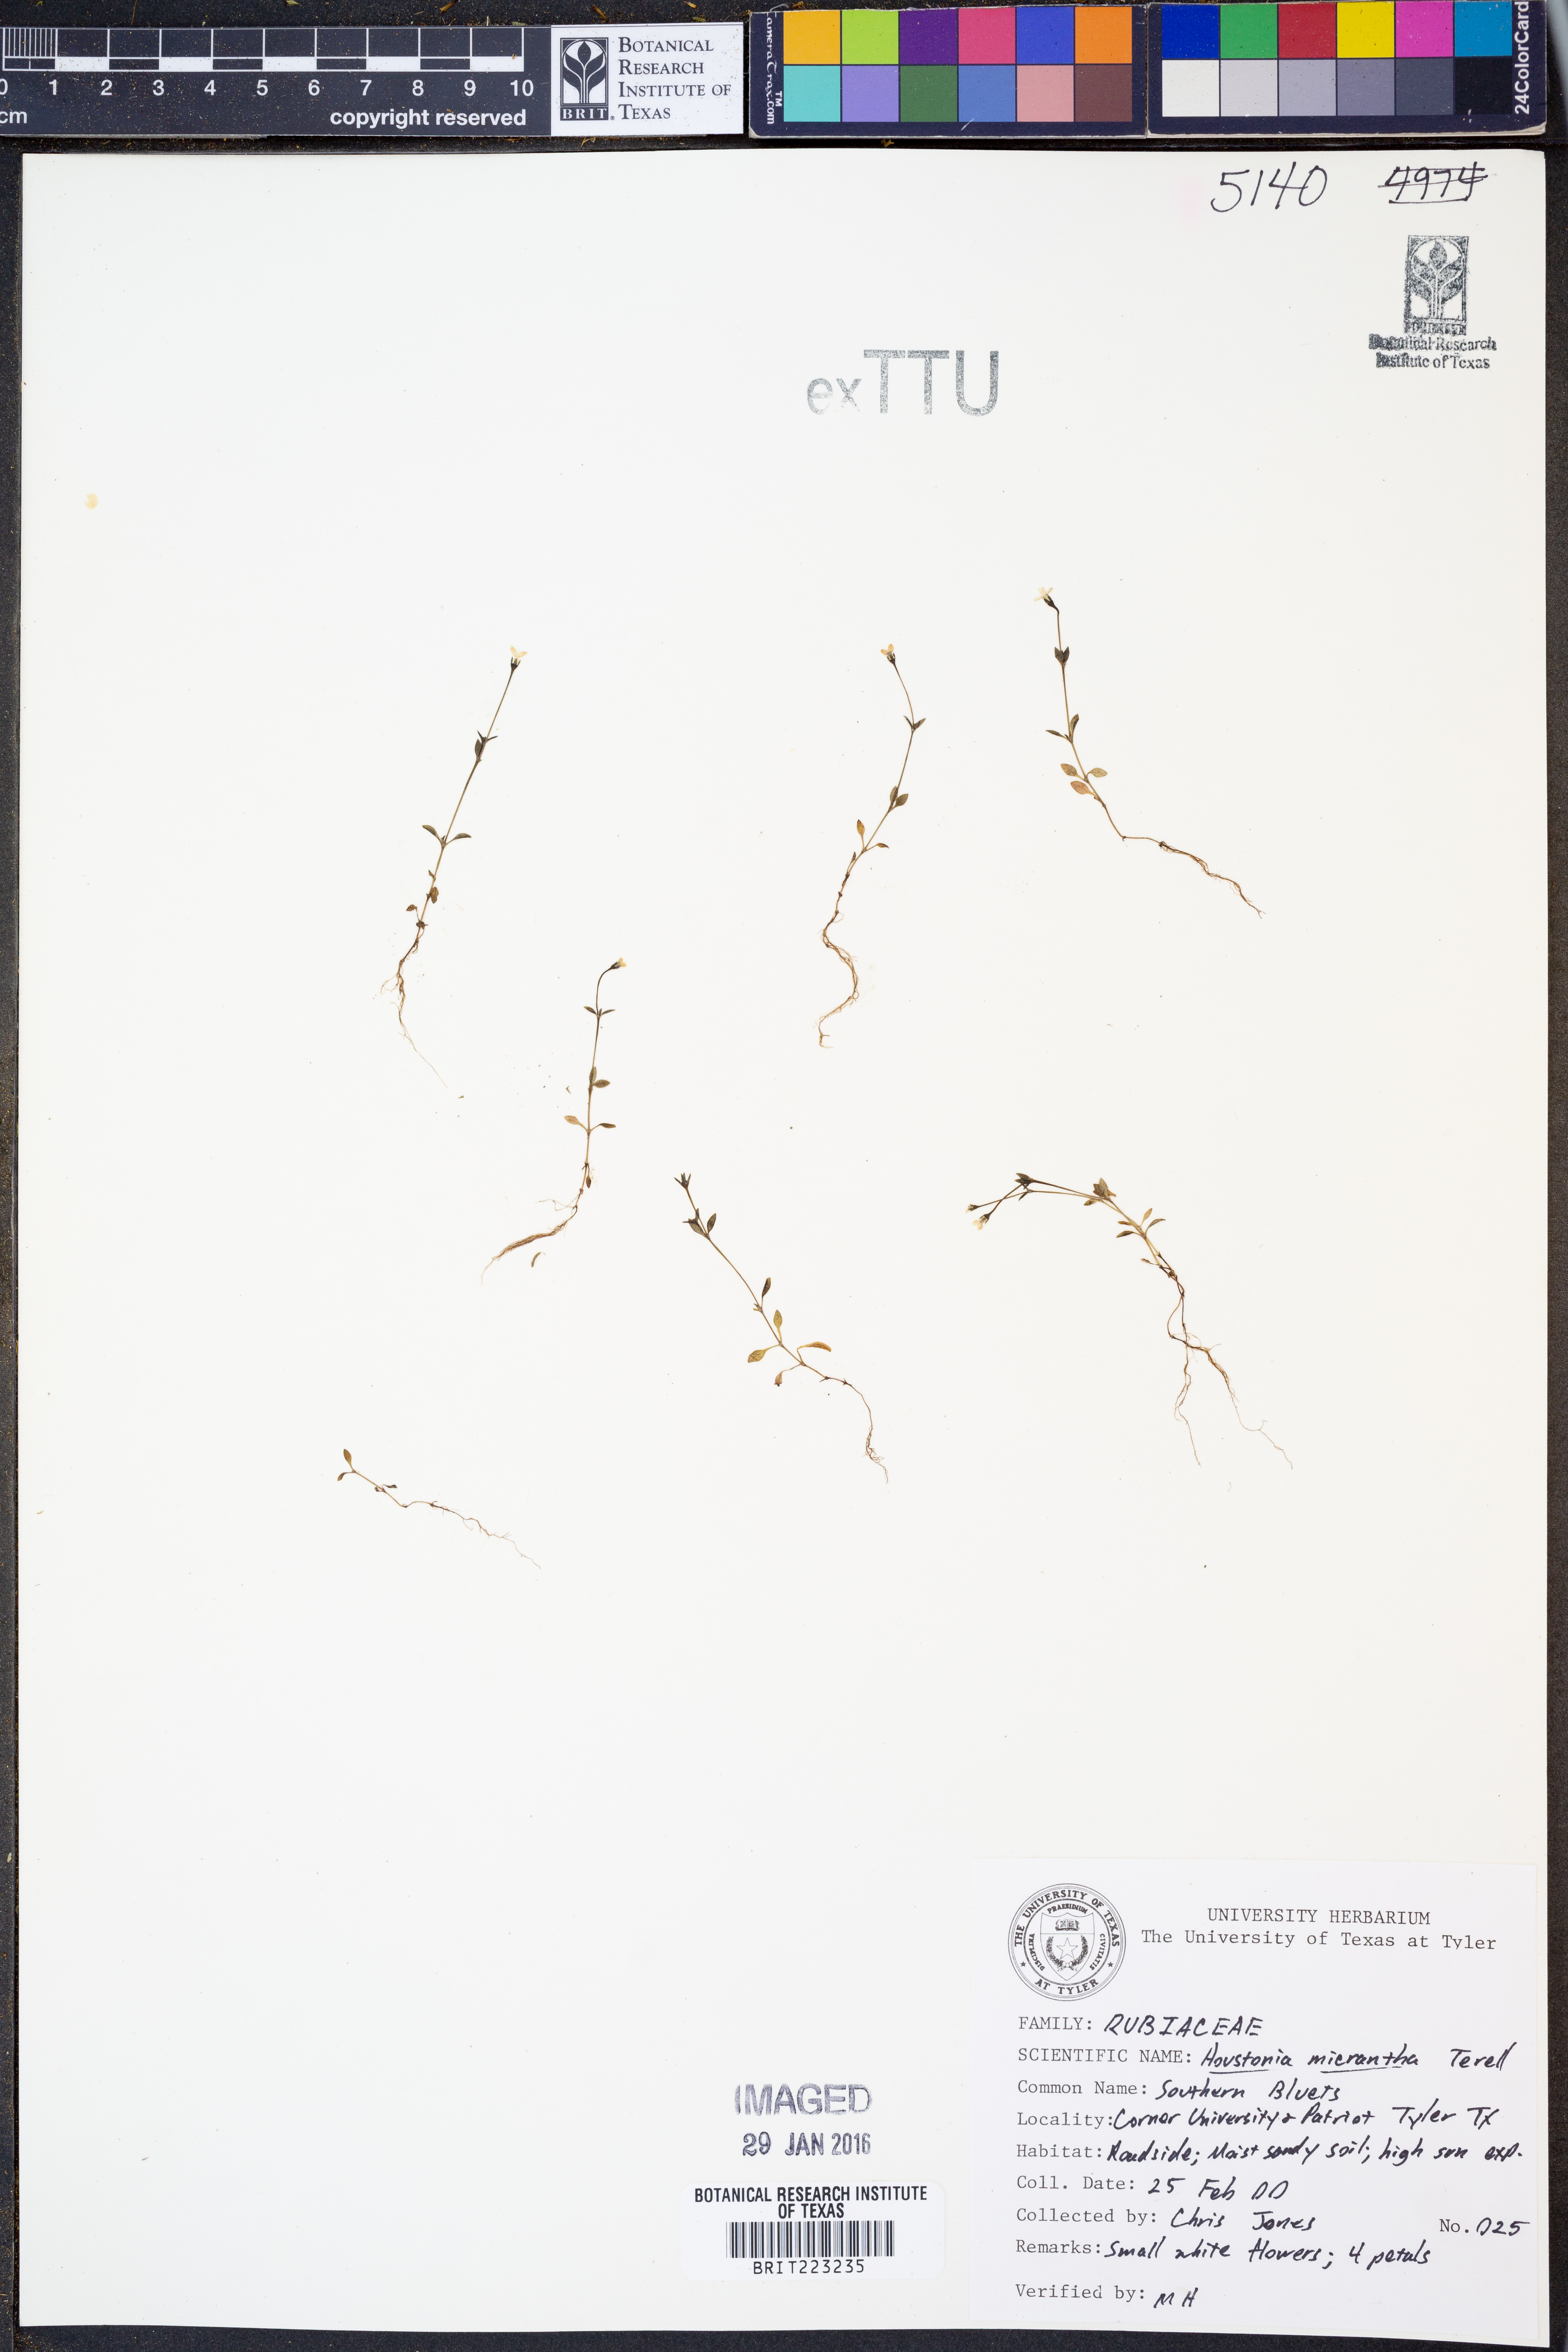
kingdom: Plantae
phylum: Tracheophyta
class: Magnoliopsida
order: Gentianales
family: Rubiaceae
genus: Houstonia
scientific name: Houstonia micrantha
